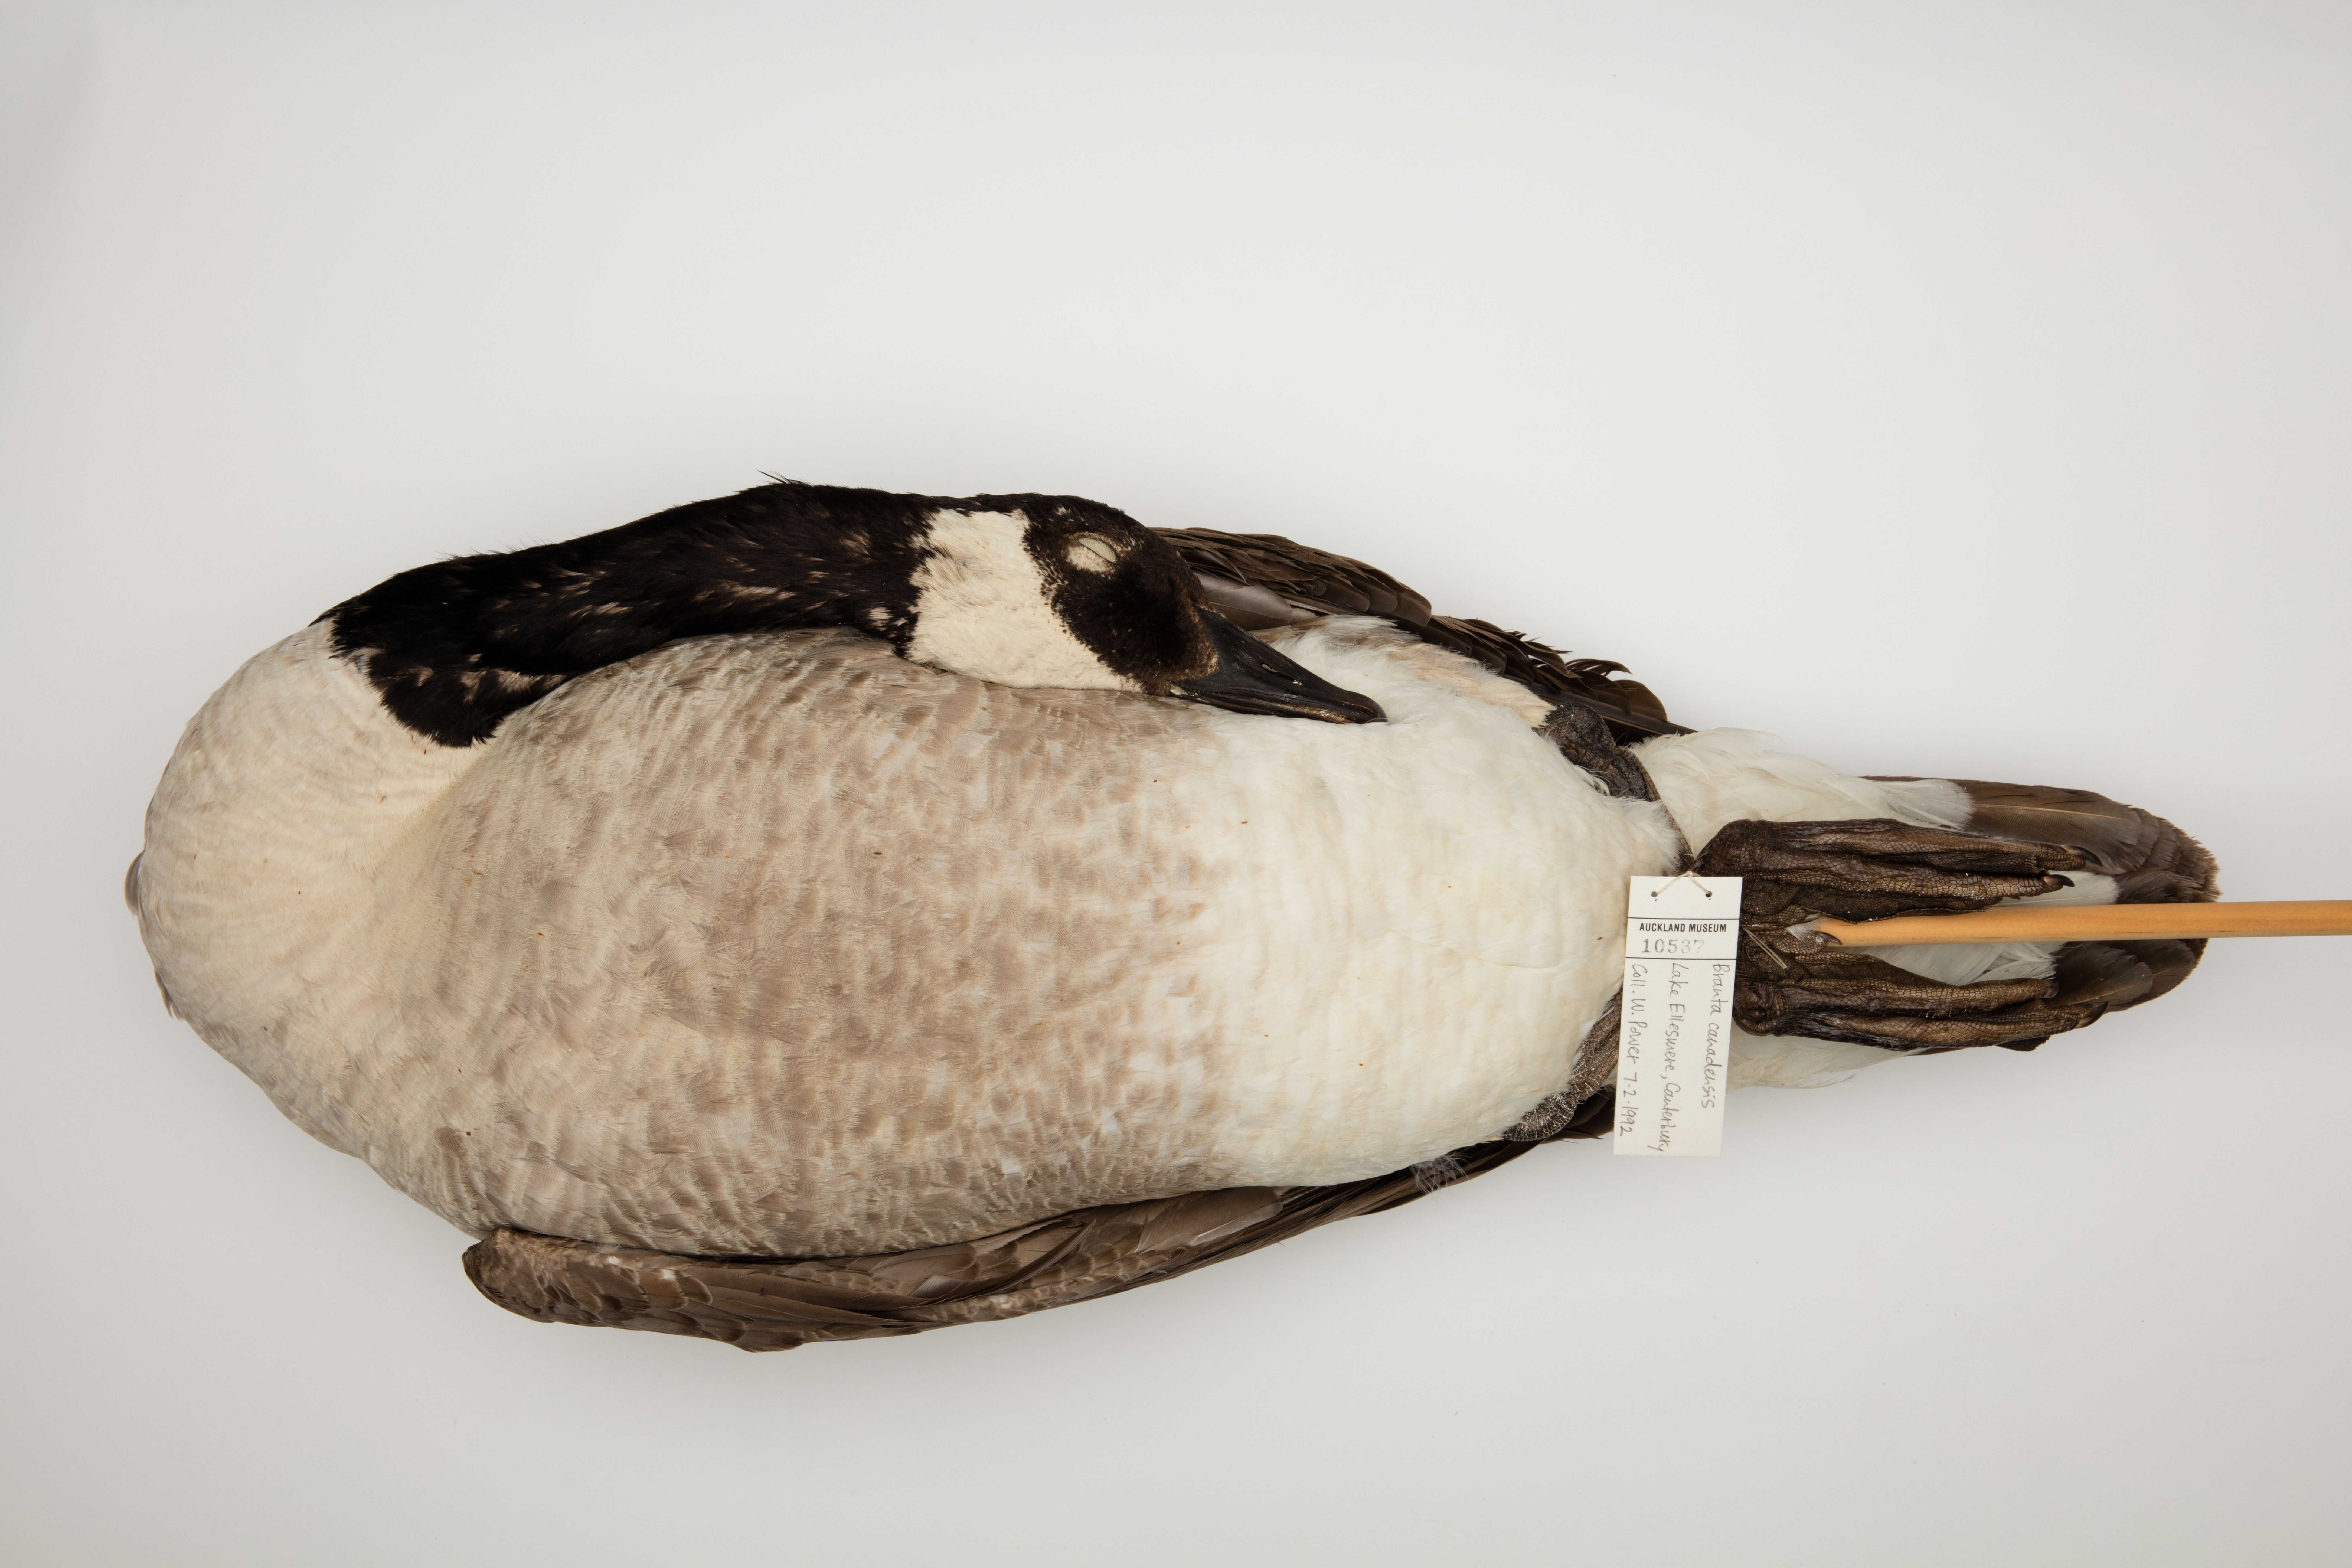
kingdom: Animalia
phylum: Chordata
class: Aves
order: Anseriformes
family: Anatidae
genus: Branta
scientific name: Branta canadensis
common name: Canada goose
